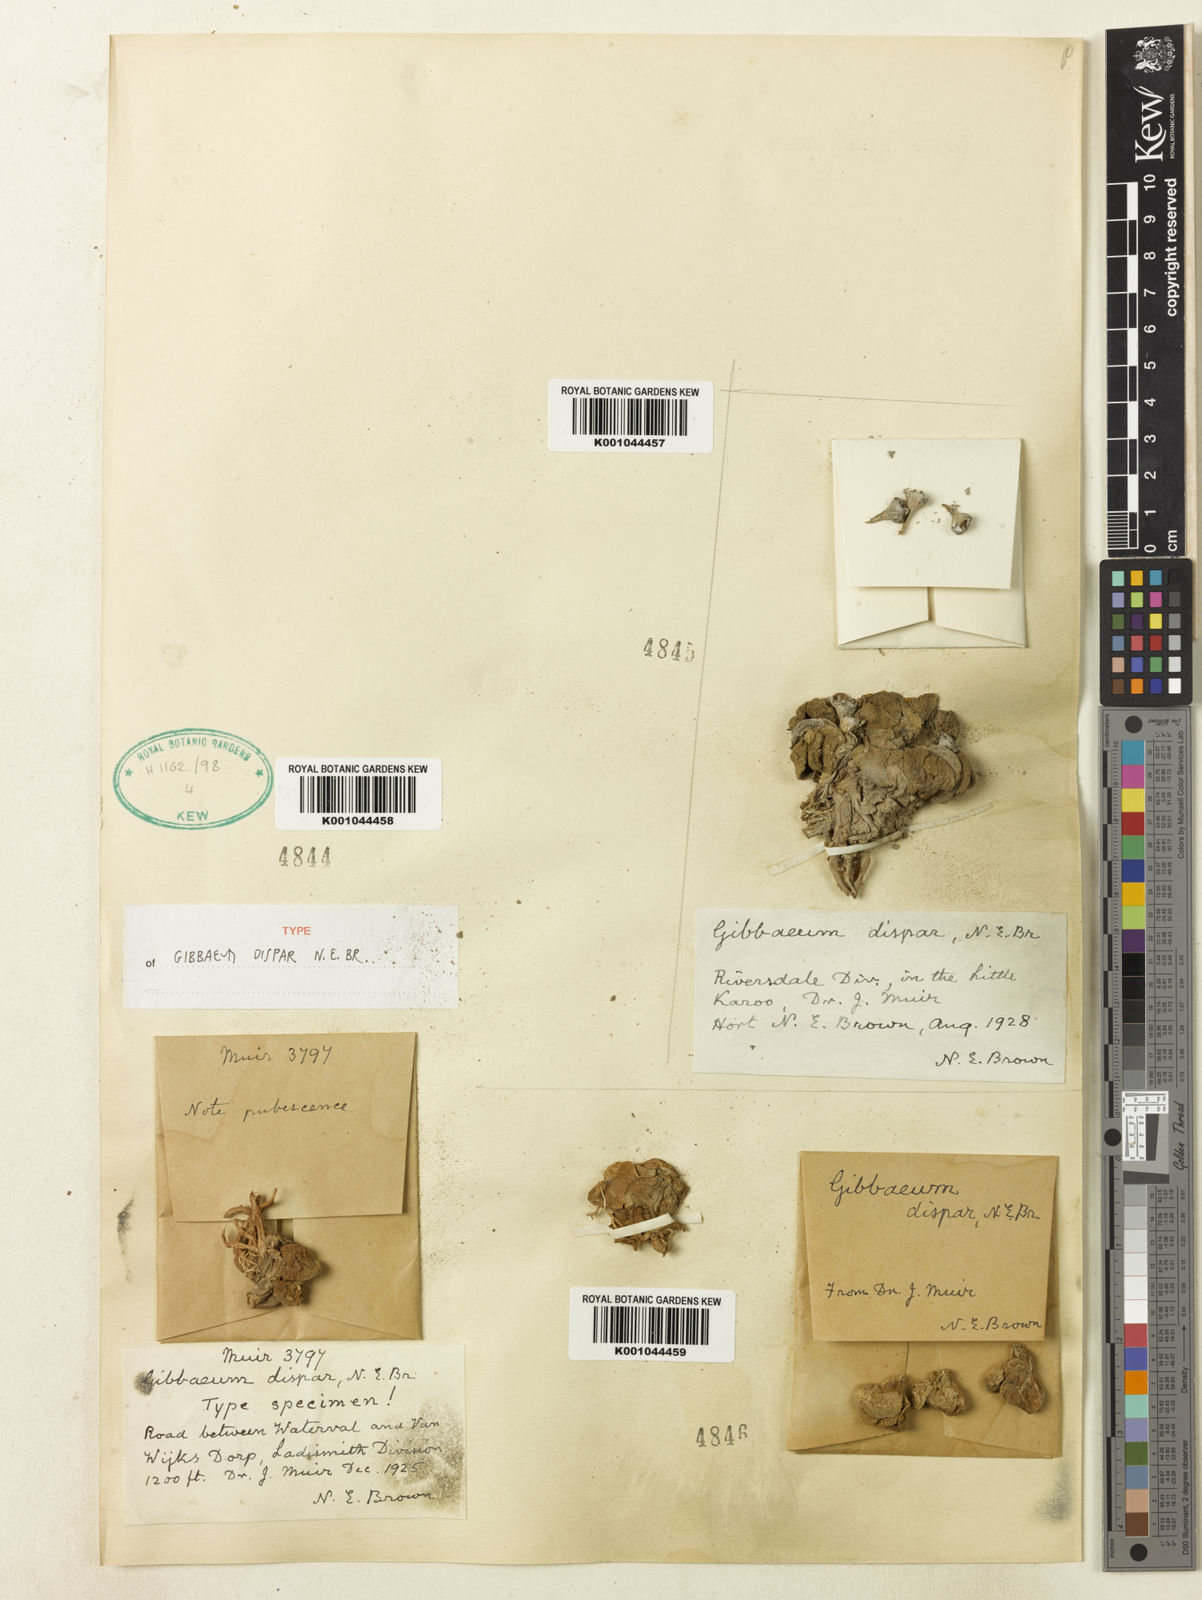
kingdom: Plantae
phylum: Tracheophyta
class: Magnoliopsida
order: Caryophyllales
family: Aizoaceae
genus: Gibbaeum
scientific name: Gibbaeum dispar
